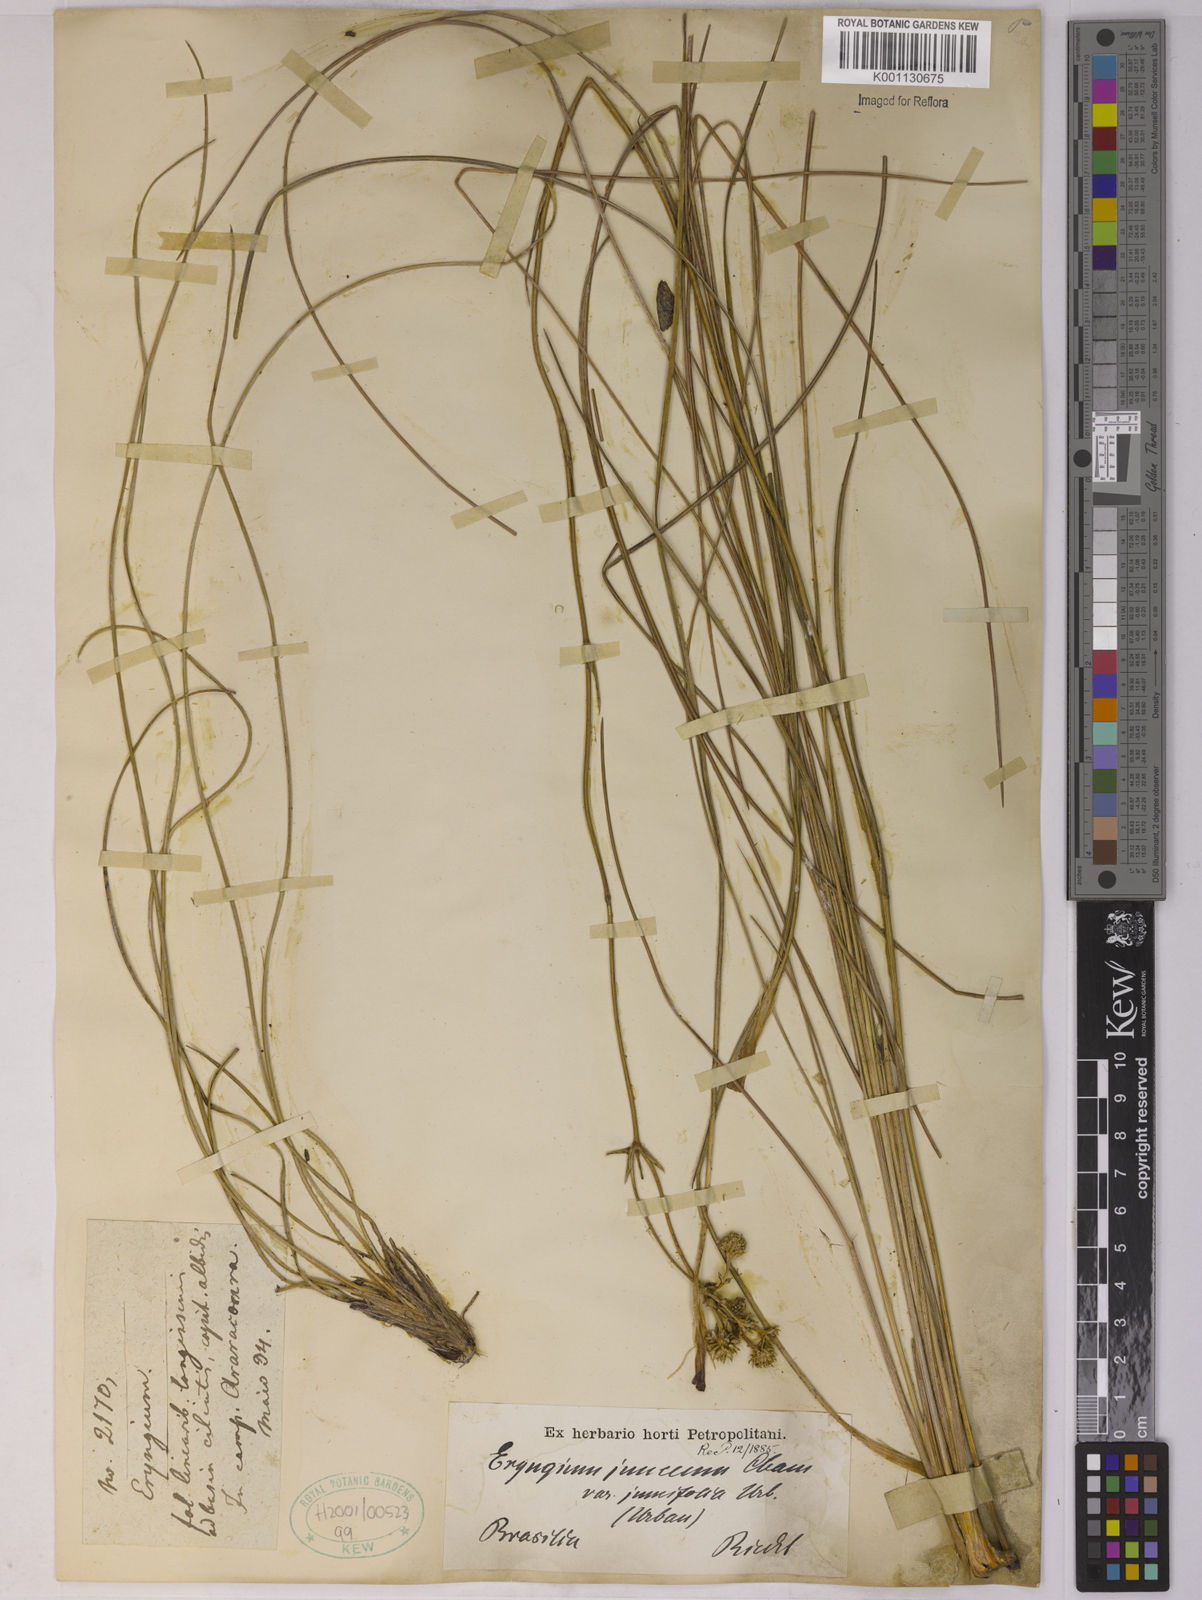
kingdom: Plantae
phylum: Tracheophyta
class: Magnoliopsida
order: Apiales
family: Apiaceae
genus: Eryngium
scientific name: Eryngium juncifolium
